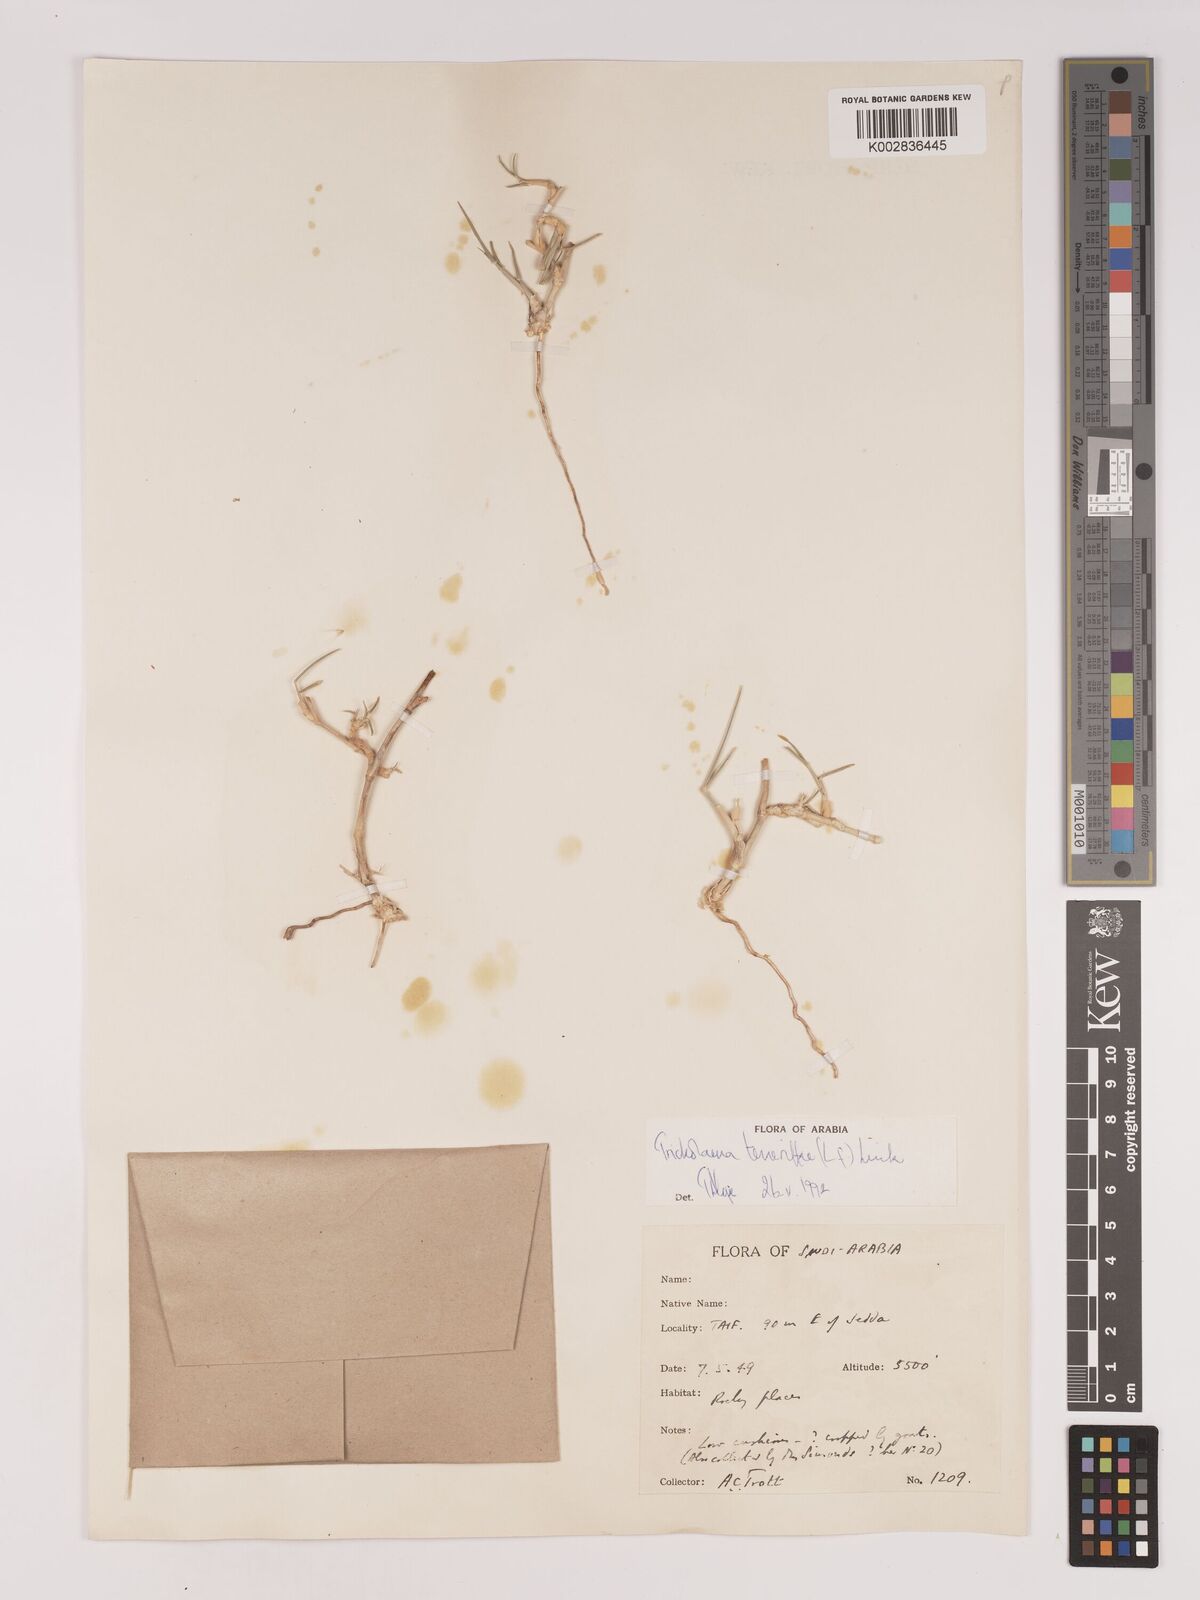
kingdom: Plantae
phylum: Tracheophyta
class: Liliopsida
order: Poales
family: Poaceae
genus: Tricholaena
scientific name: Tricholaena teneriffae
